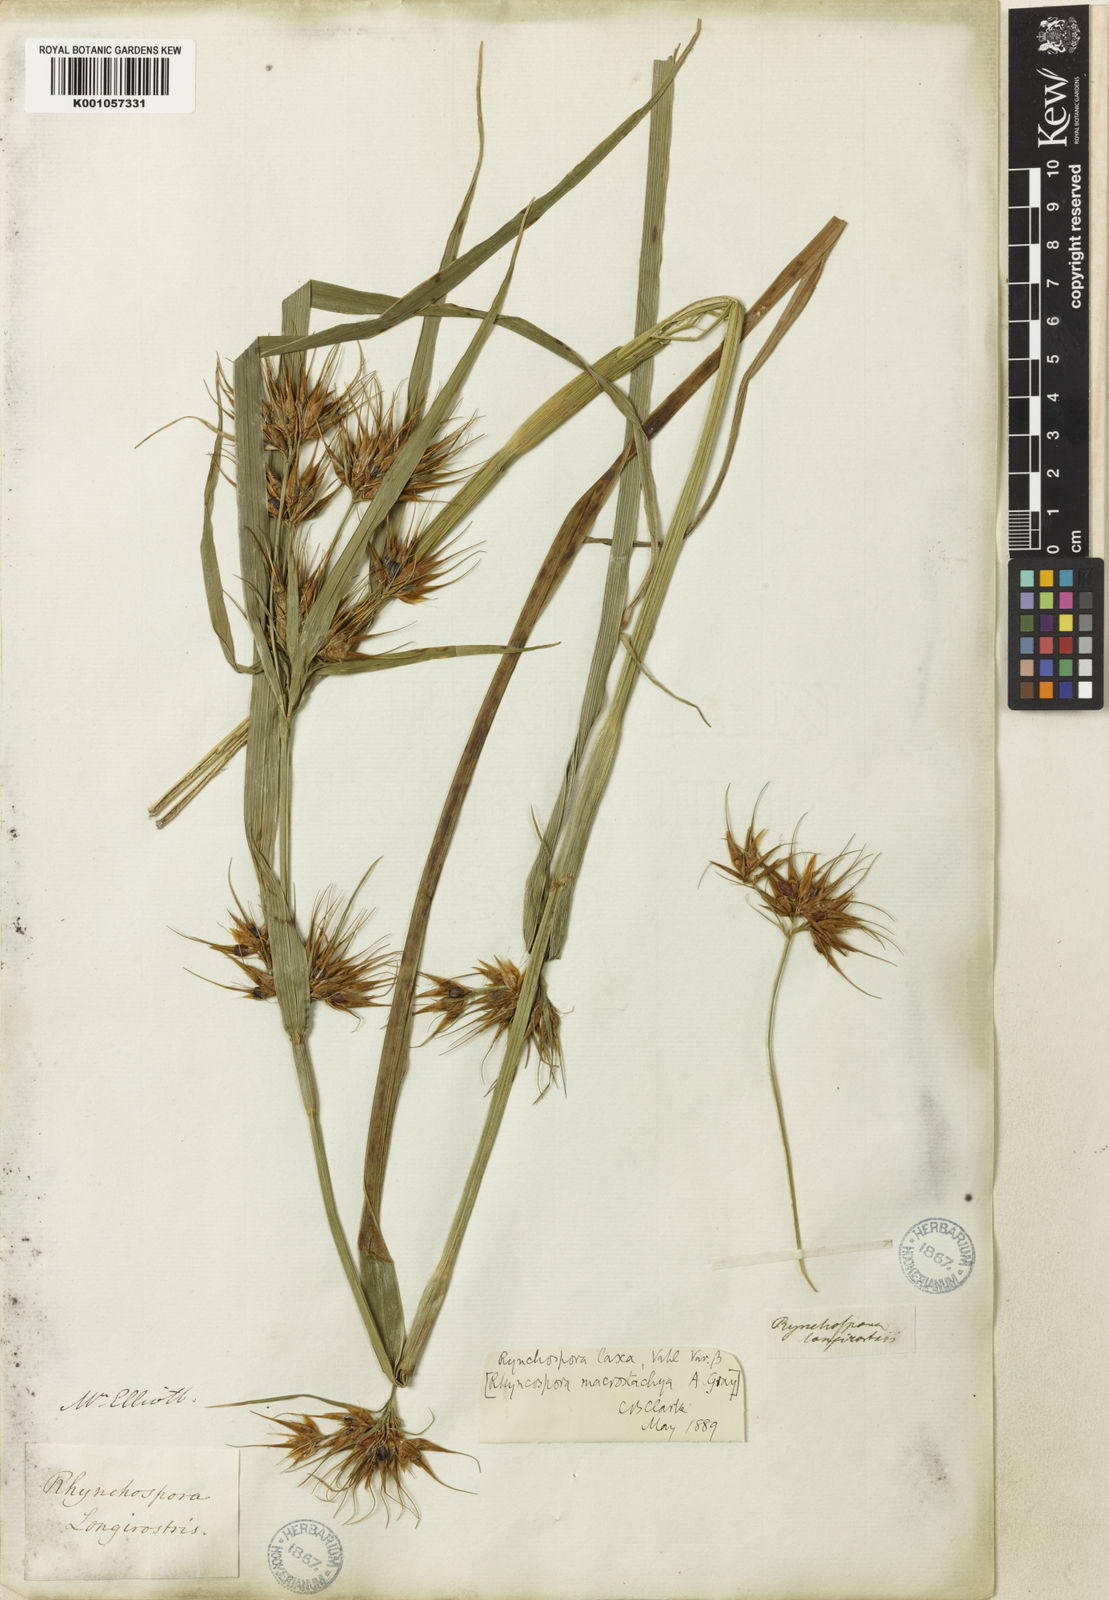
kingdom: Plantae
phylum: Tracheophyta
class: Liliopsida
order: Poales
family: Cyperaceae
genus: Rhynchospora
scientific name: Rhynchospora corniculata
